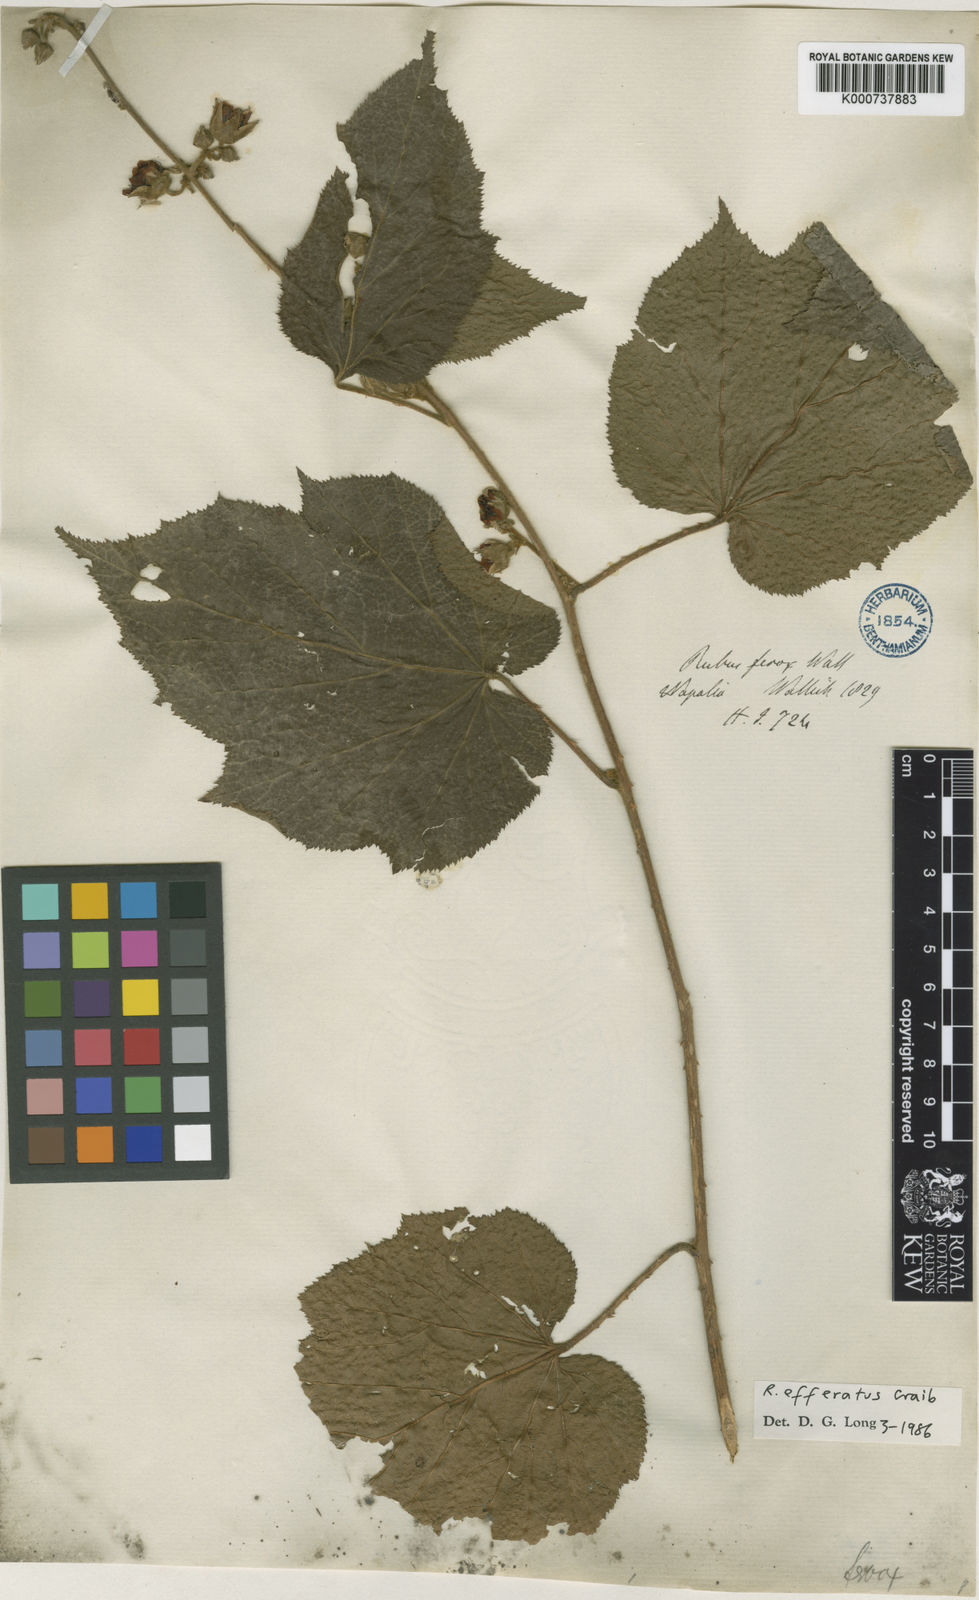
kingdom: Plantae
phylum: Tracheophyta
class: Magnoliopsida
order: Rosales
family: Rosaceae
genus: Rubus
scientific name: Rubus
